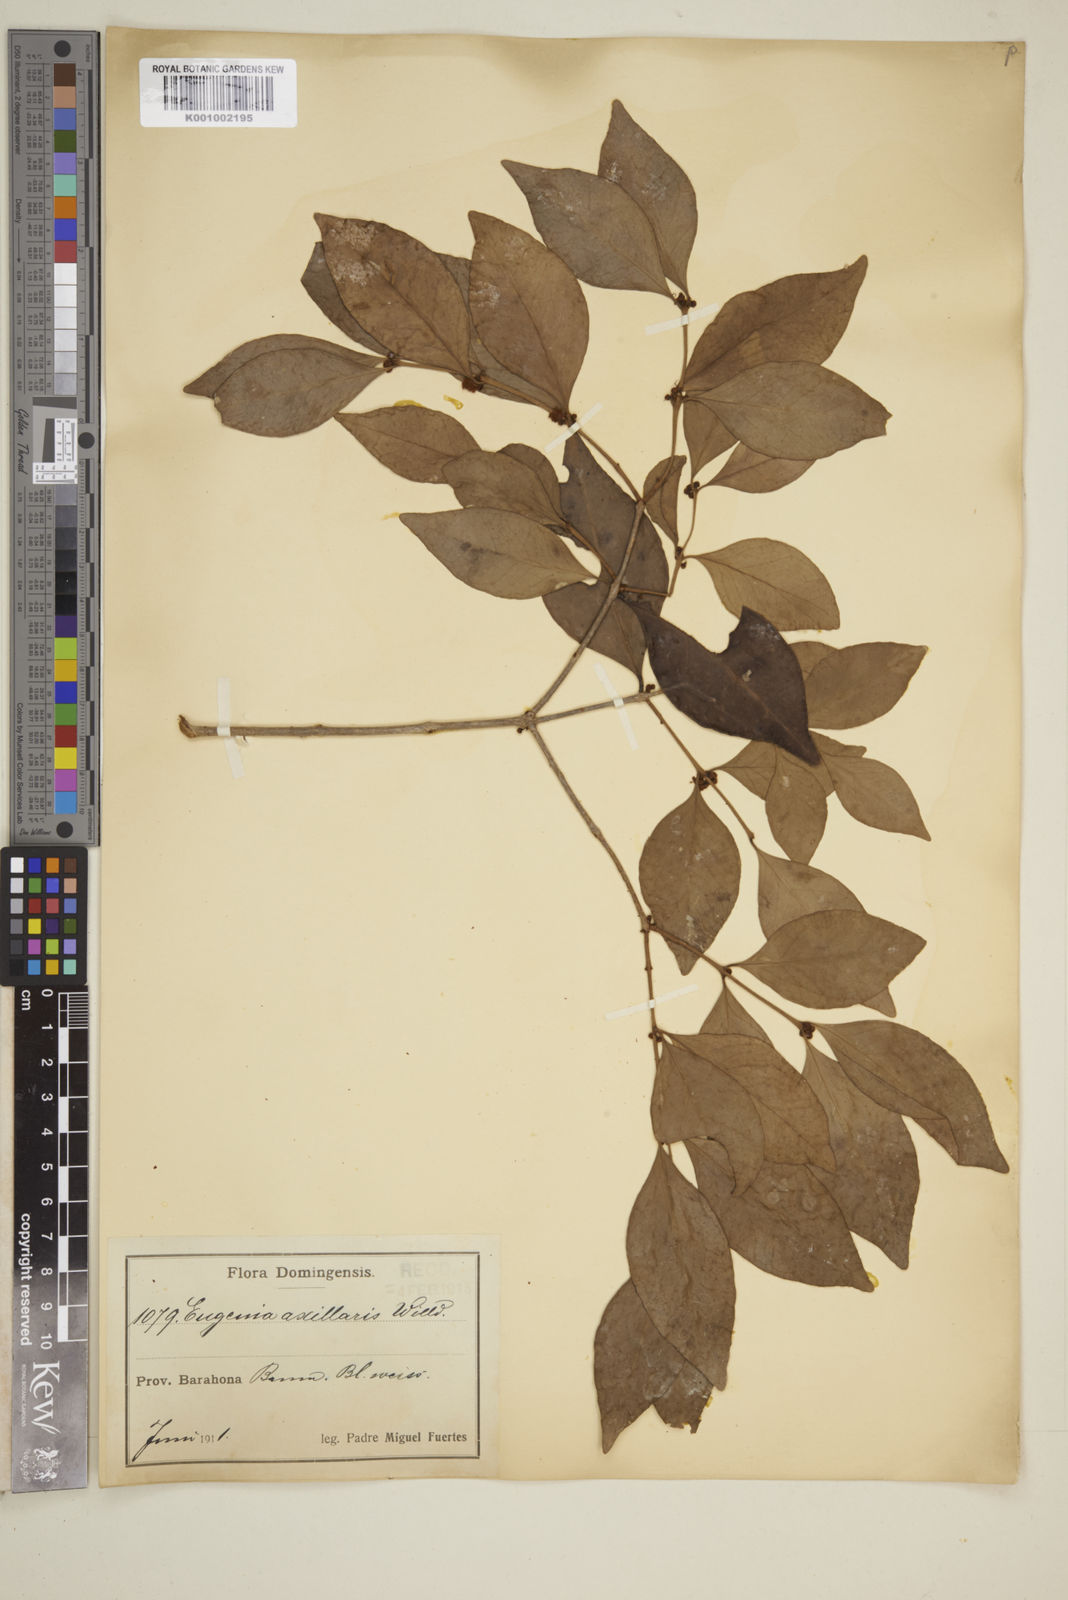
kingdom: Plantae
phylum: Tracheophyta
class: Magnoliopsida
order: Myrtales
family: Myrtaceae
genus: Eugenia
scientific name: Eugenia axillaris
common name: Choaky berry
